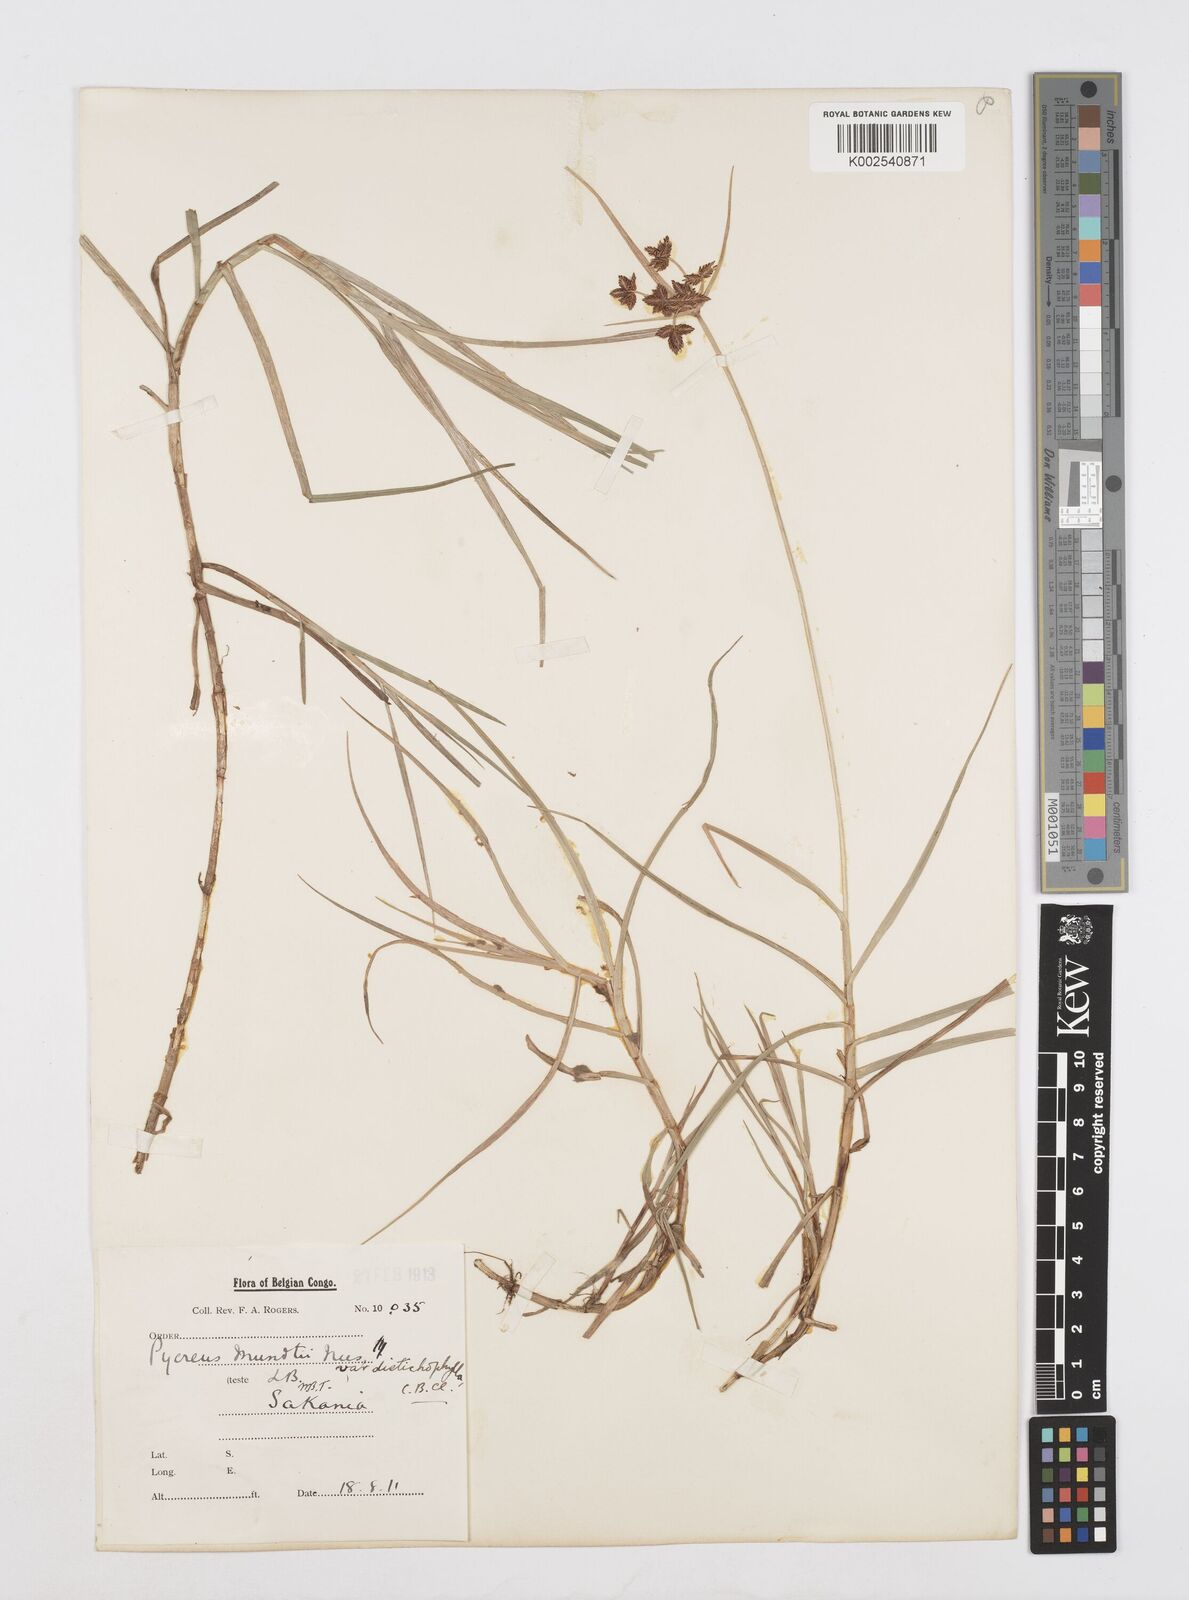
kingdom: Plantae
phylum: Tracheophyta
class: Liliopsida
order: Poales
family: Cyperaceae
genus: Cyperus
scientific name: Cyperus mundii
